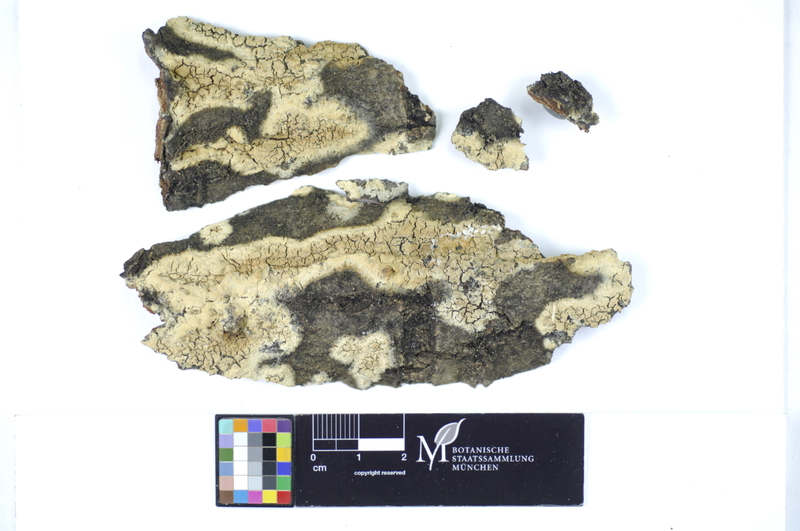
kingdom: Fungi
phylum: Basidiomycota
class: Agaricomycetes
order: Polyporales
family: Hyphodermataceae
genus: Hyphoderma
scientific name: Hyphoderma setigerum
